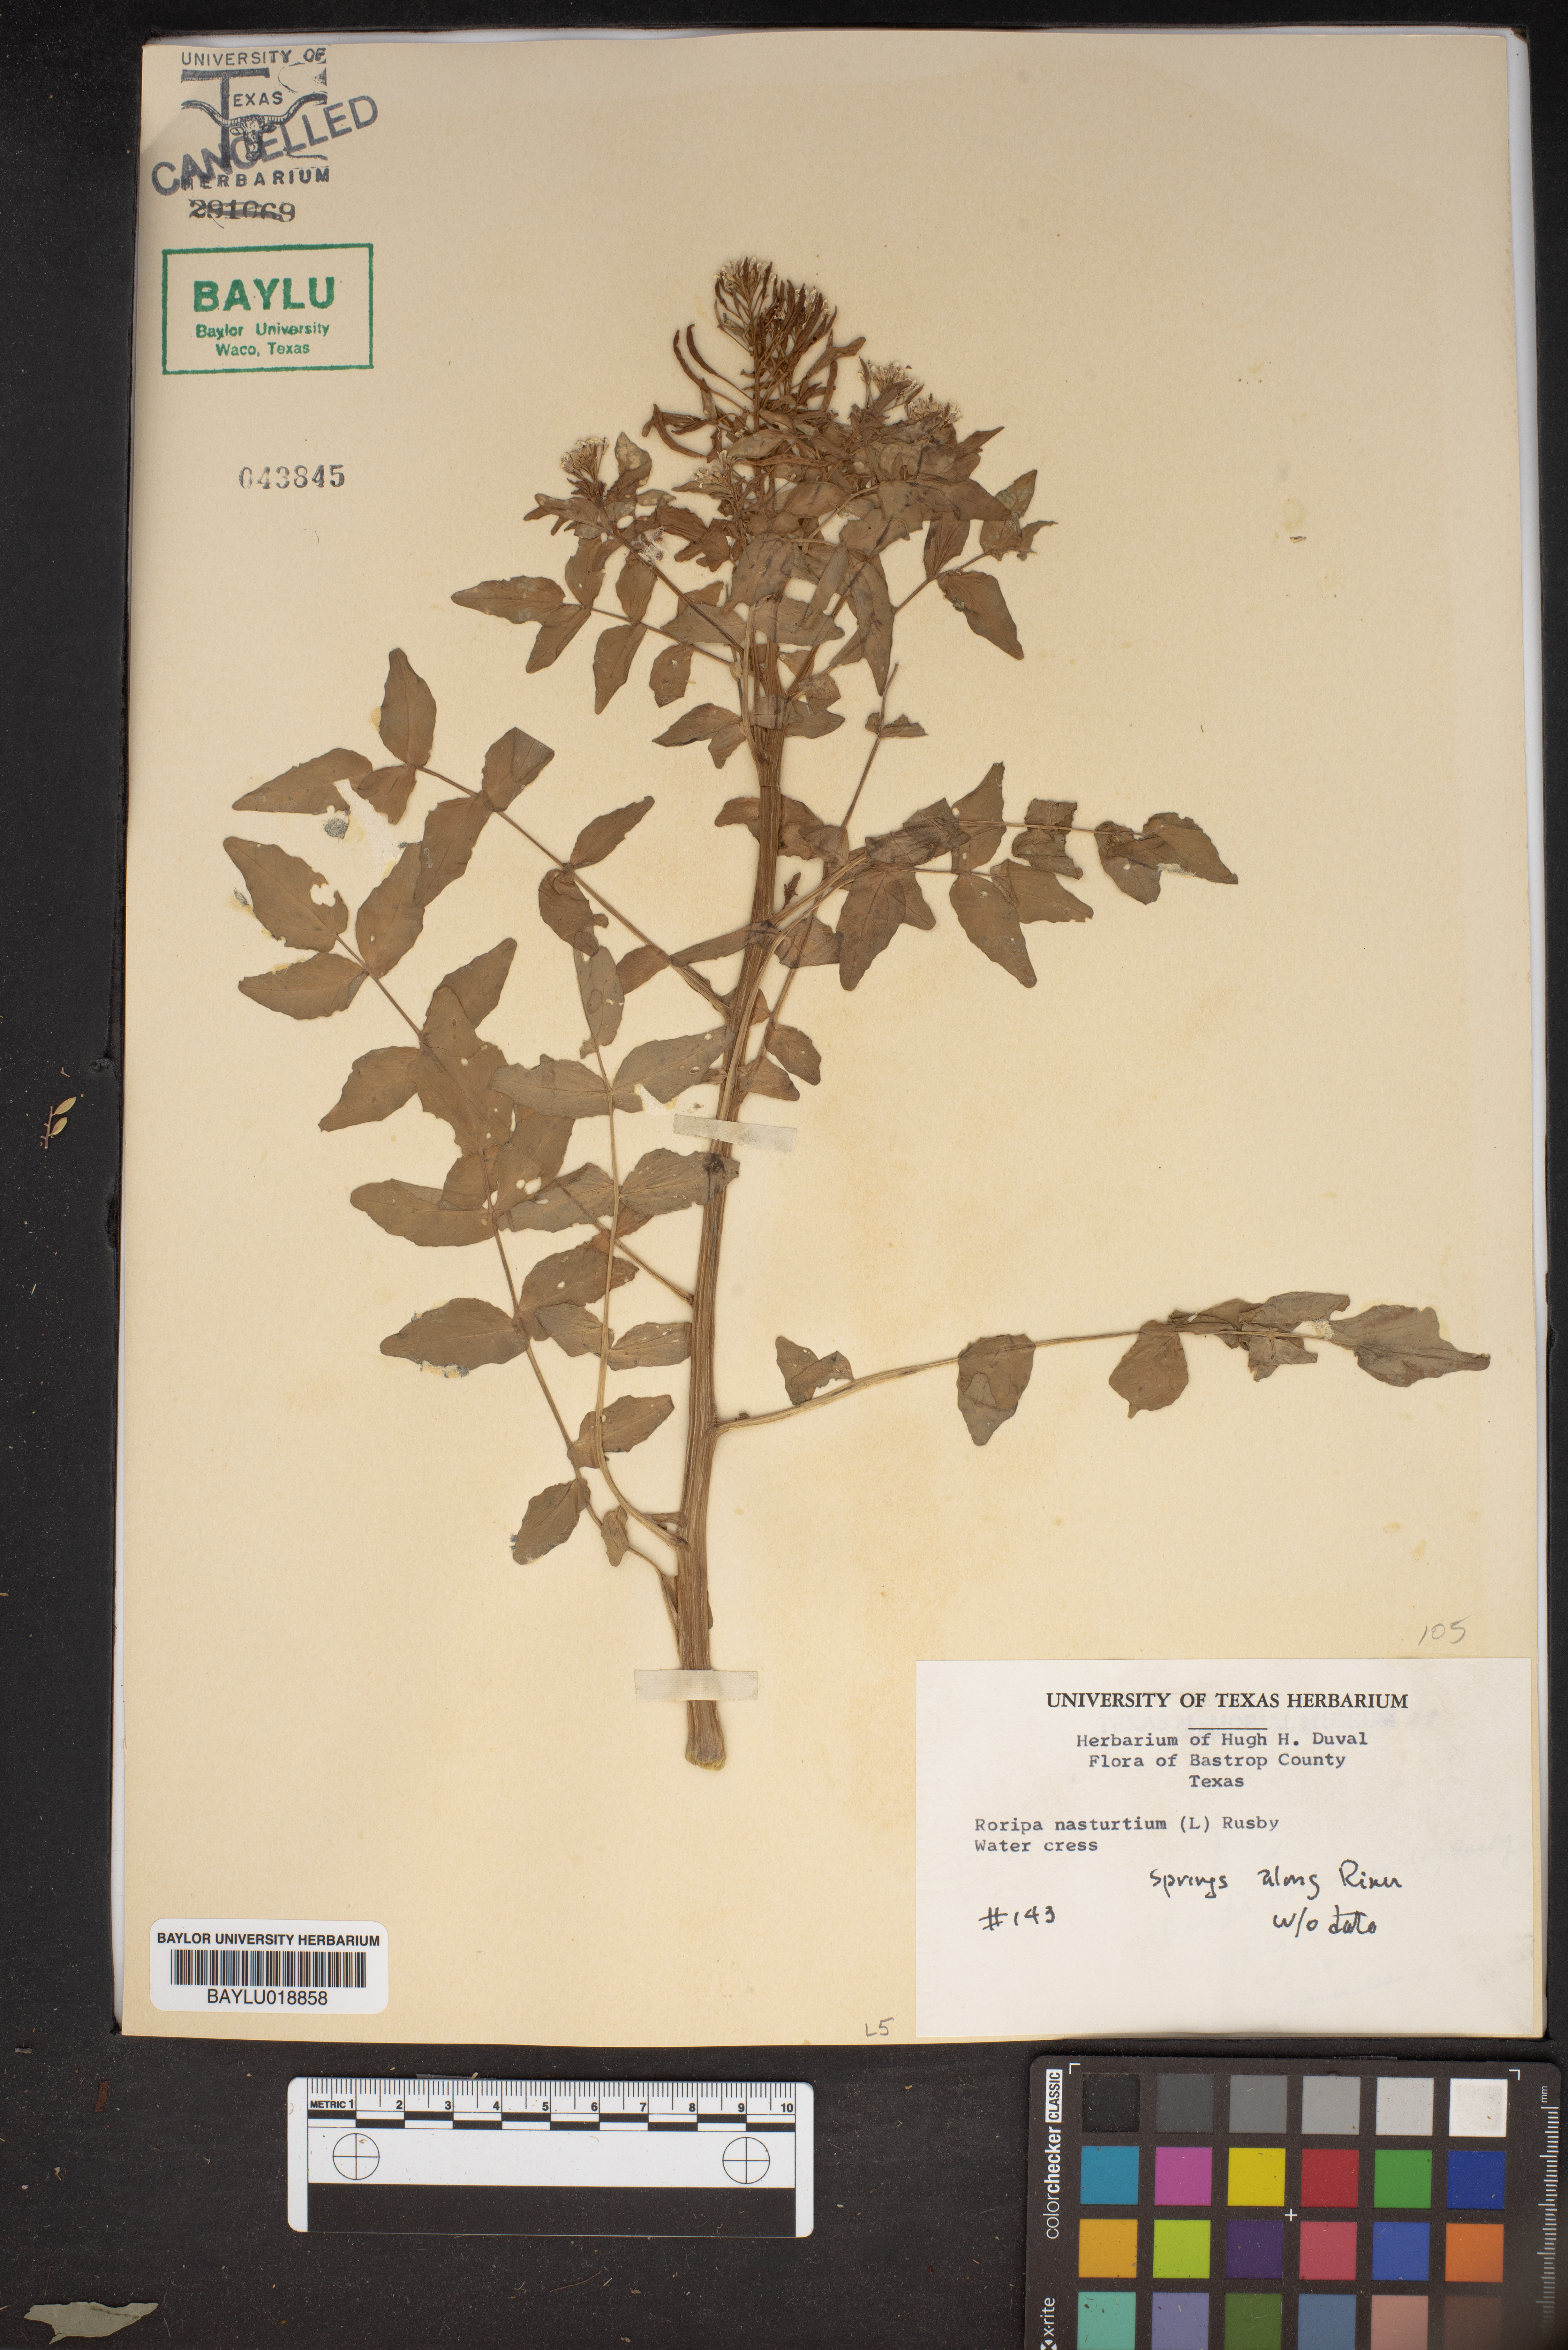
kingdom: Plantae
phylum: Tracheophyta
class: Magnoliopsida
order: Brassicales
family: Brassicaceae
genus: Nasturtium
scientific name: Nasturtium officinale
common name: Watercress
